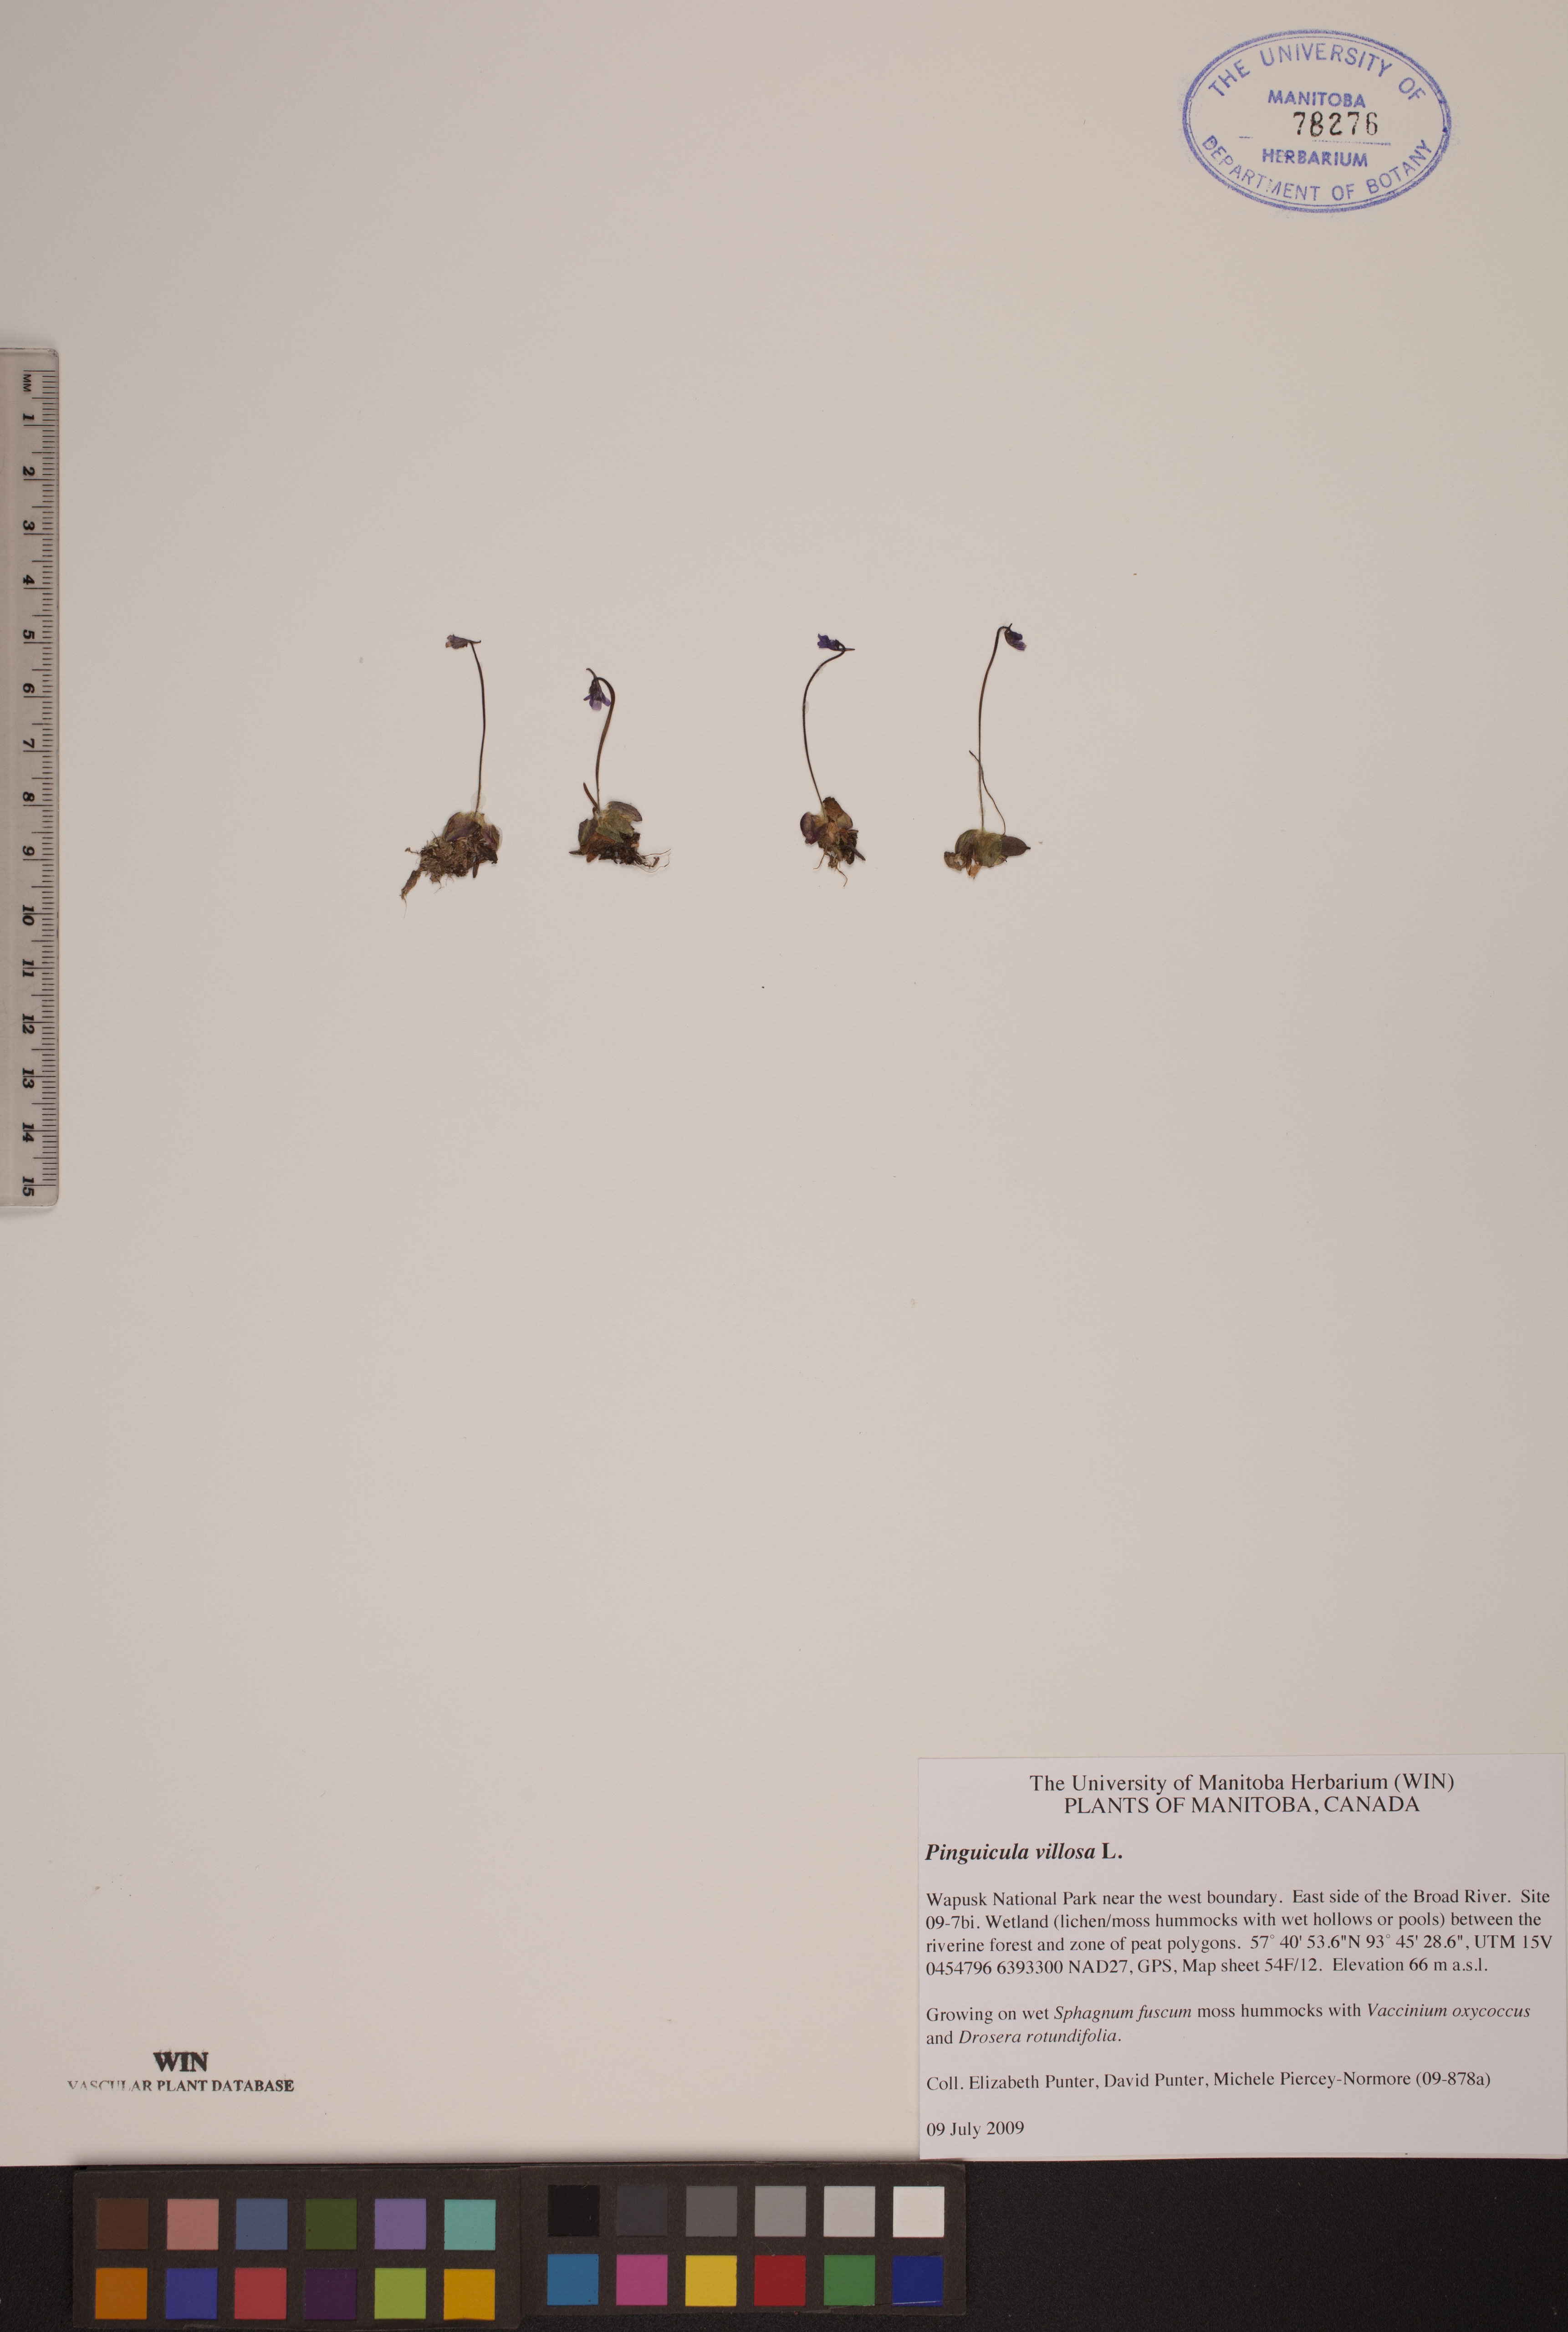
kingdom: Plantae
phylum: Tracheophyta
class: Magnoliopsida
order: Lamiales
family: Lentibulariaceae
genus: Pinguicula
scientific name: Pinguicula villosa
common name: Hairy butterwort
